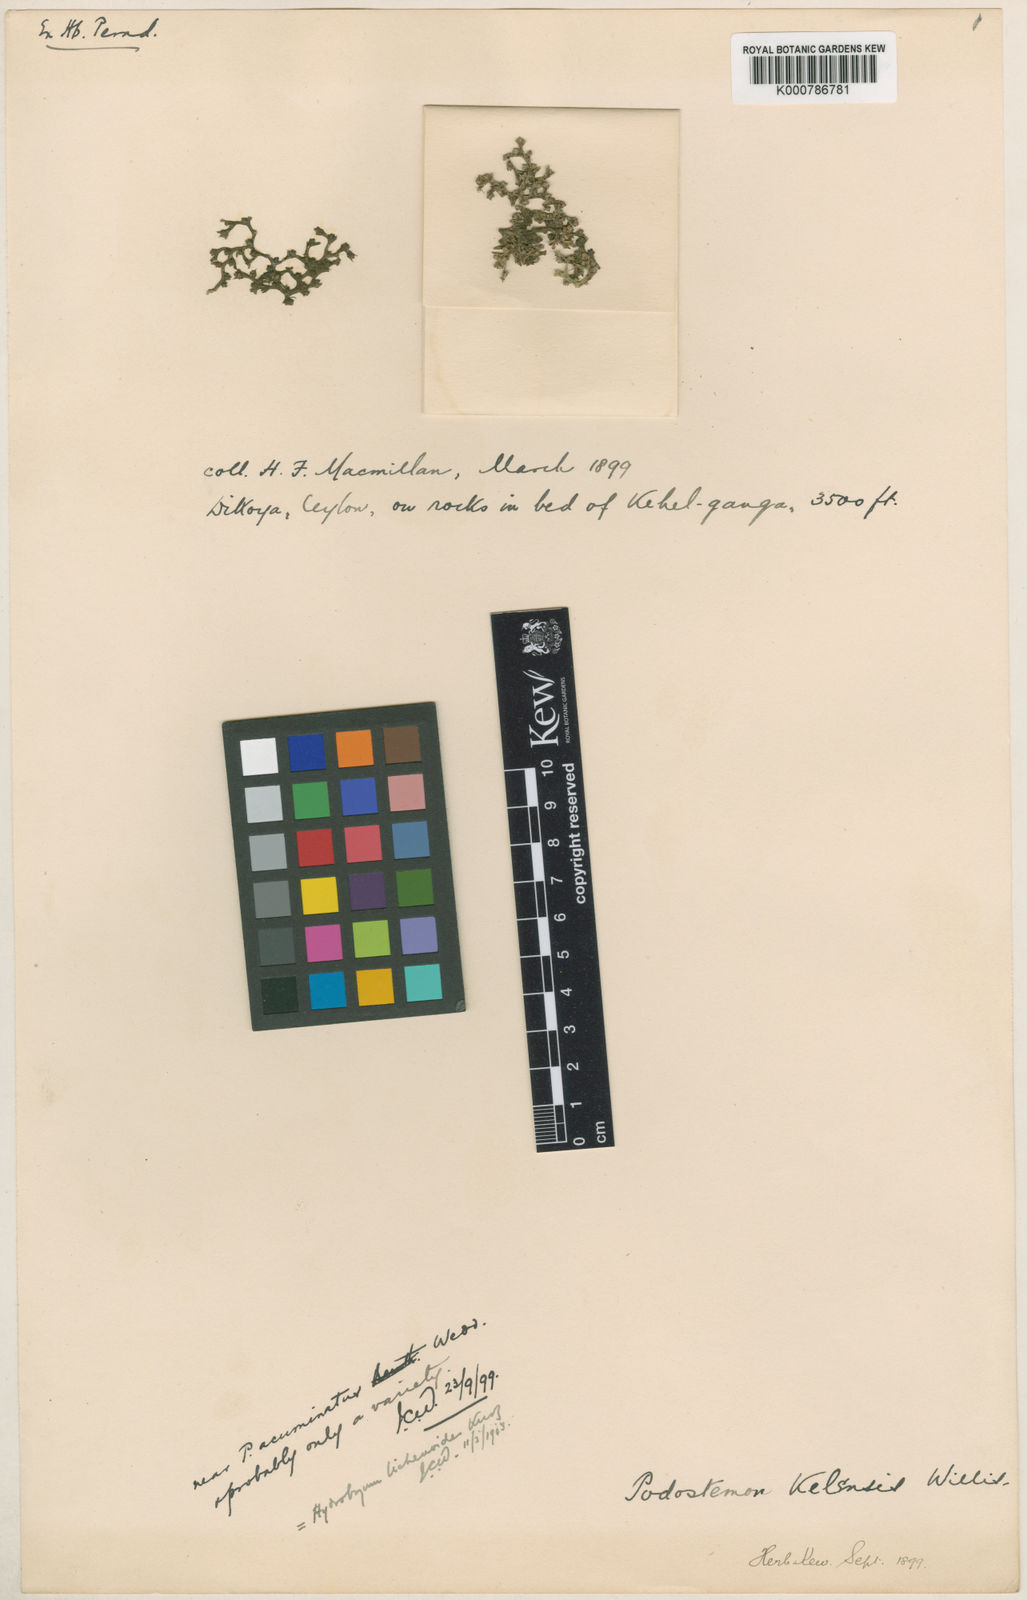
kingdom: Plantae
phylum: Tracheophyta
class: Magnoliopsida
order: Malpighiales
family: Podostemaceae
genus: Zeylanidium
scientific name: Zeylanidium lichenoides
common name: Humped bladderwort
